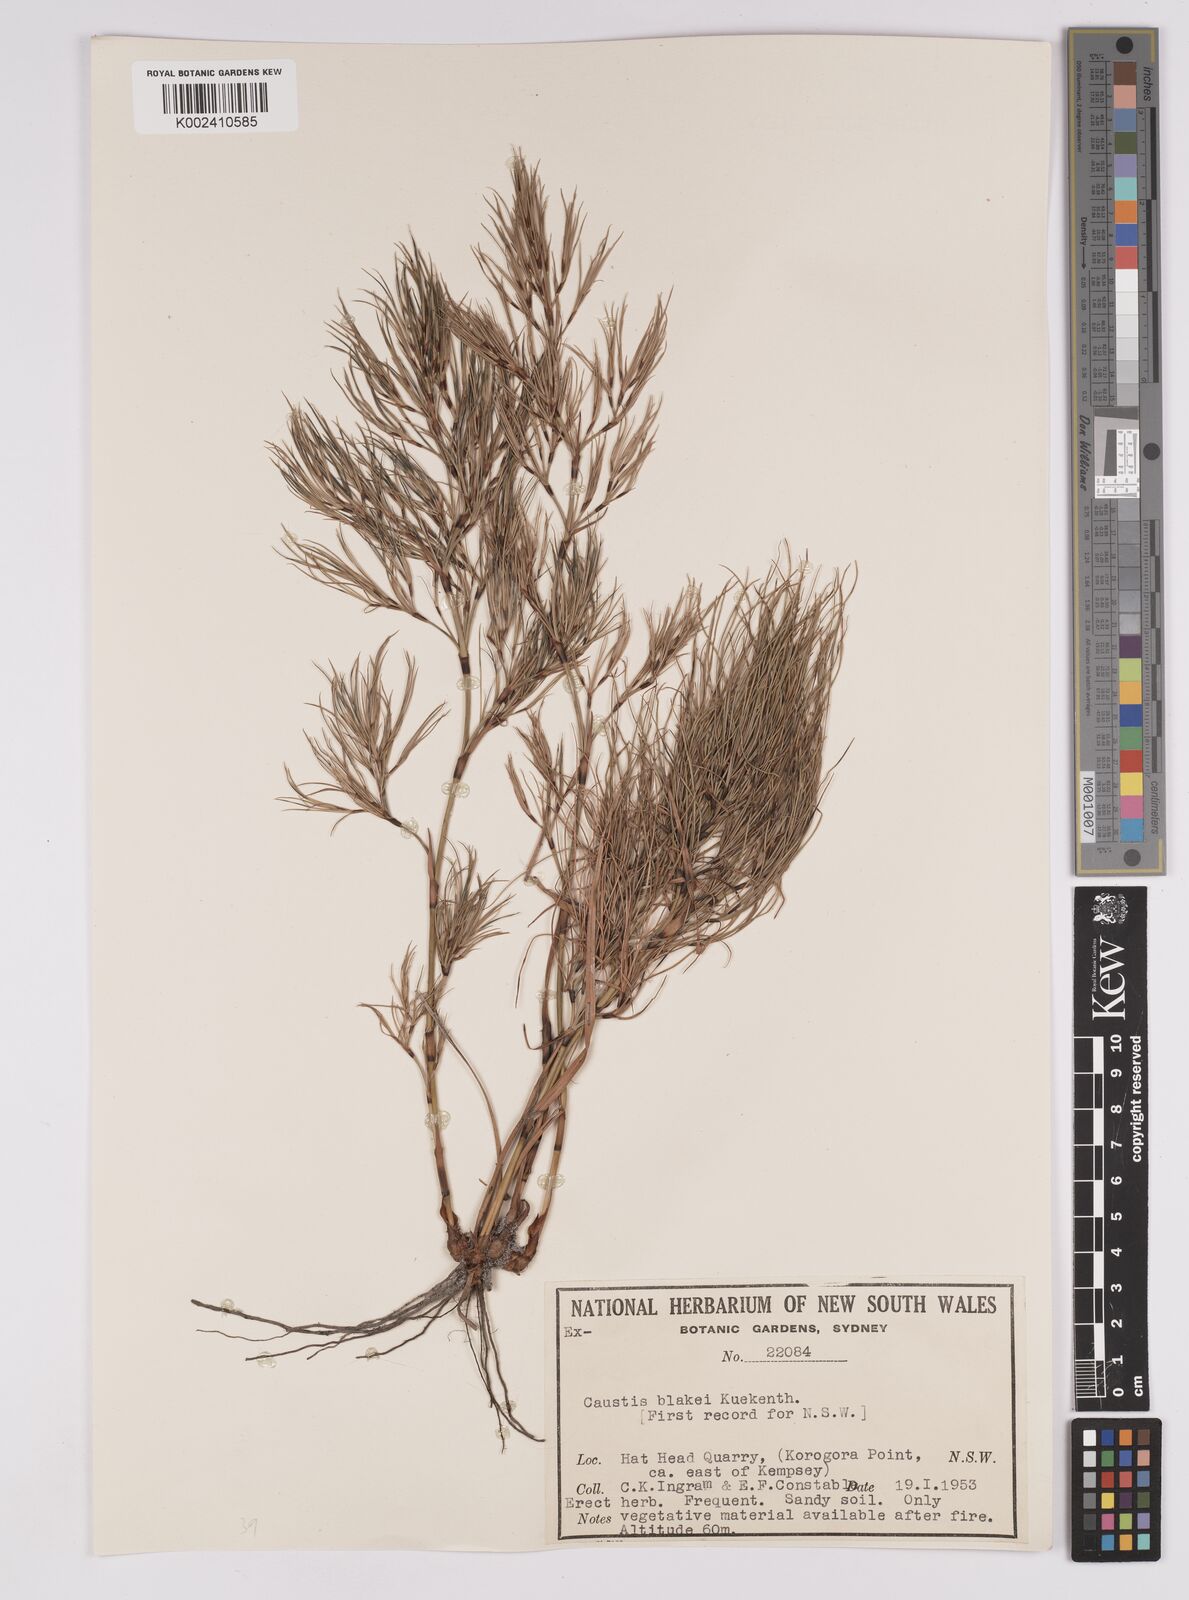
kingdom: Plantae
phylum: Tracheophyta
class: Liliopsida
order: Poales
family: Cyperaceae
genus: Caustis
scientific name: Caustis blakei
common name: Foxtail-fern
